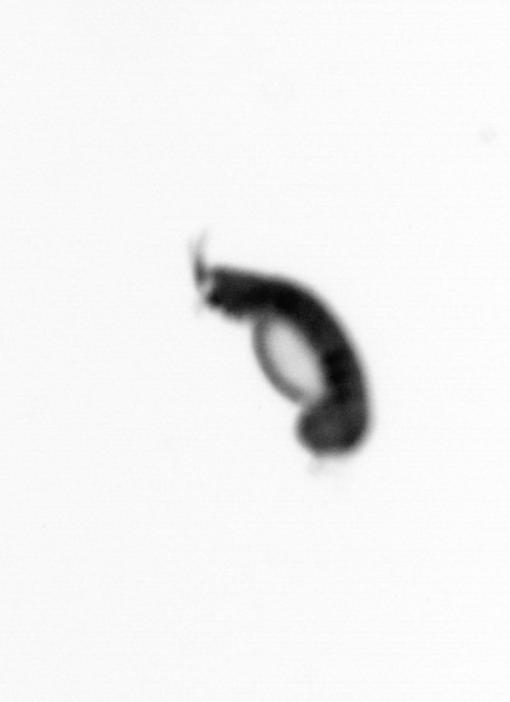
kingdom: Animalia
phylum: Annelida
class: Polychaeta
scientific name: Polychaeta
